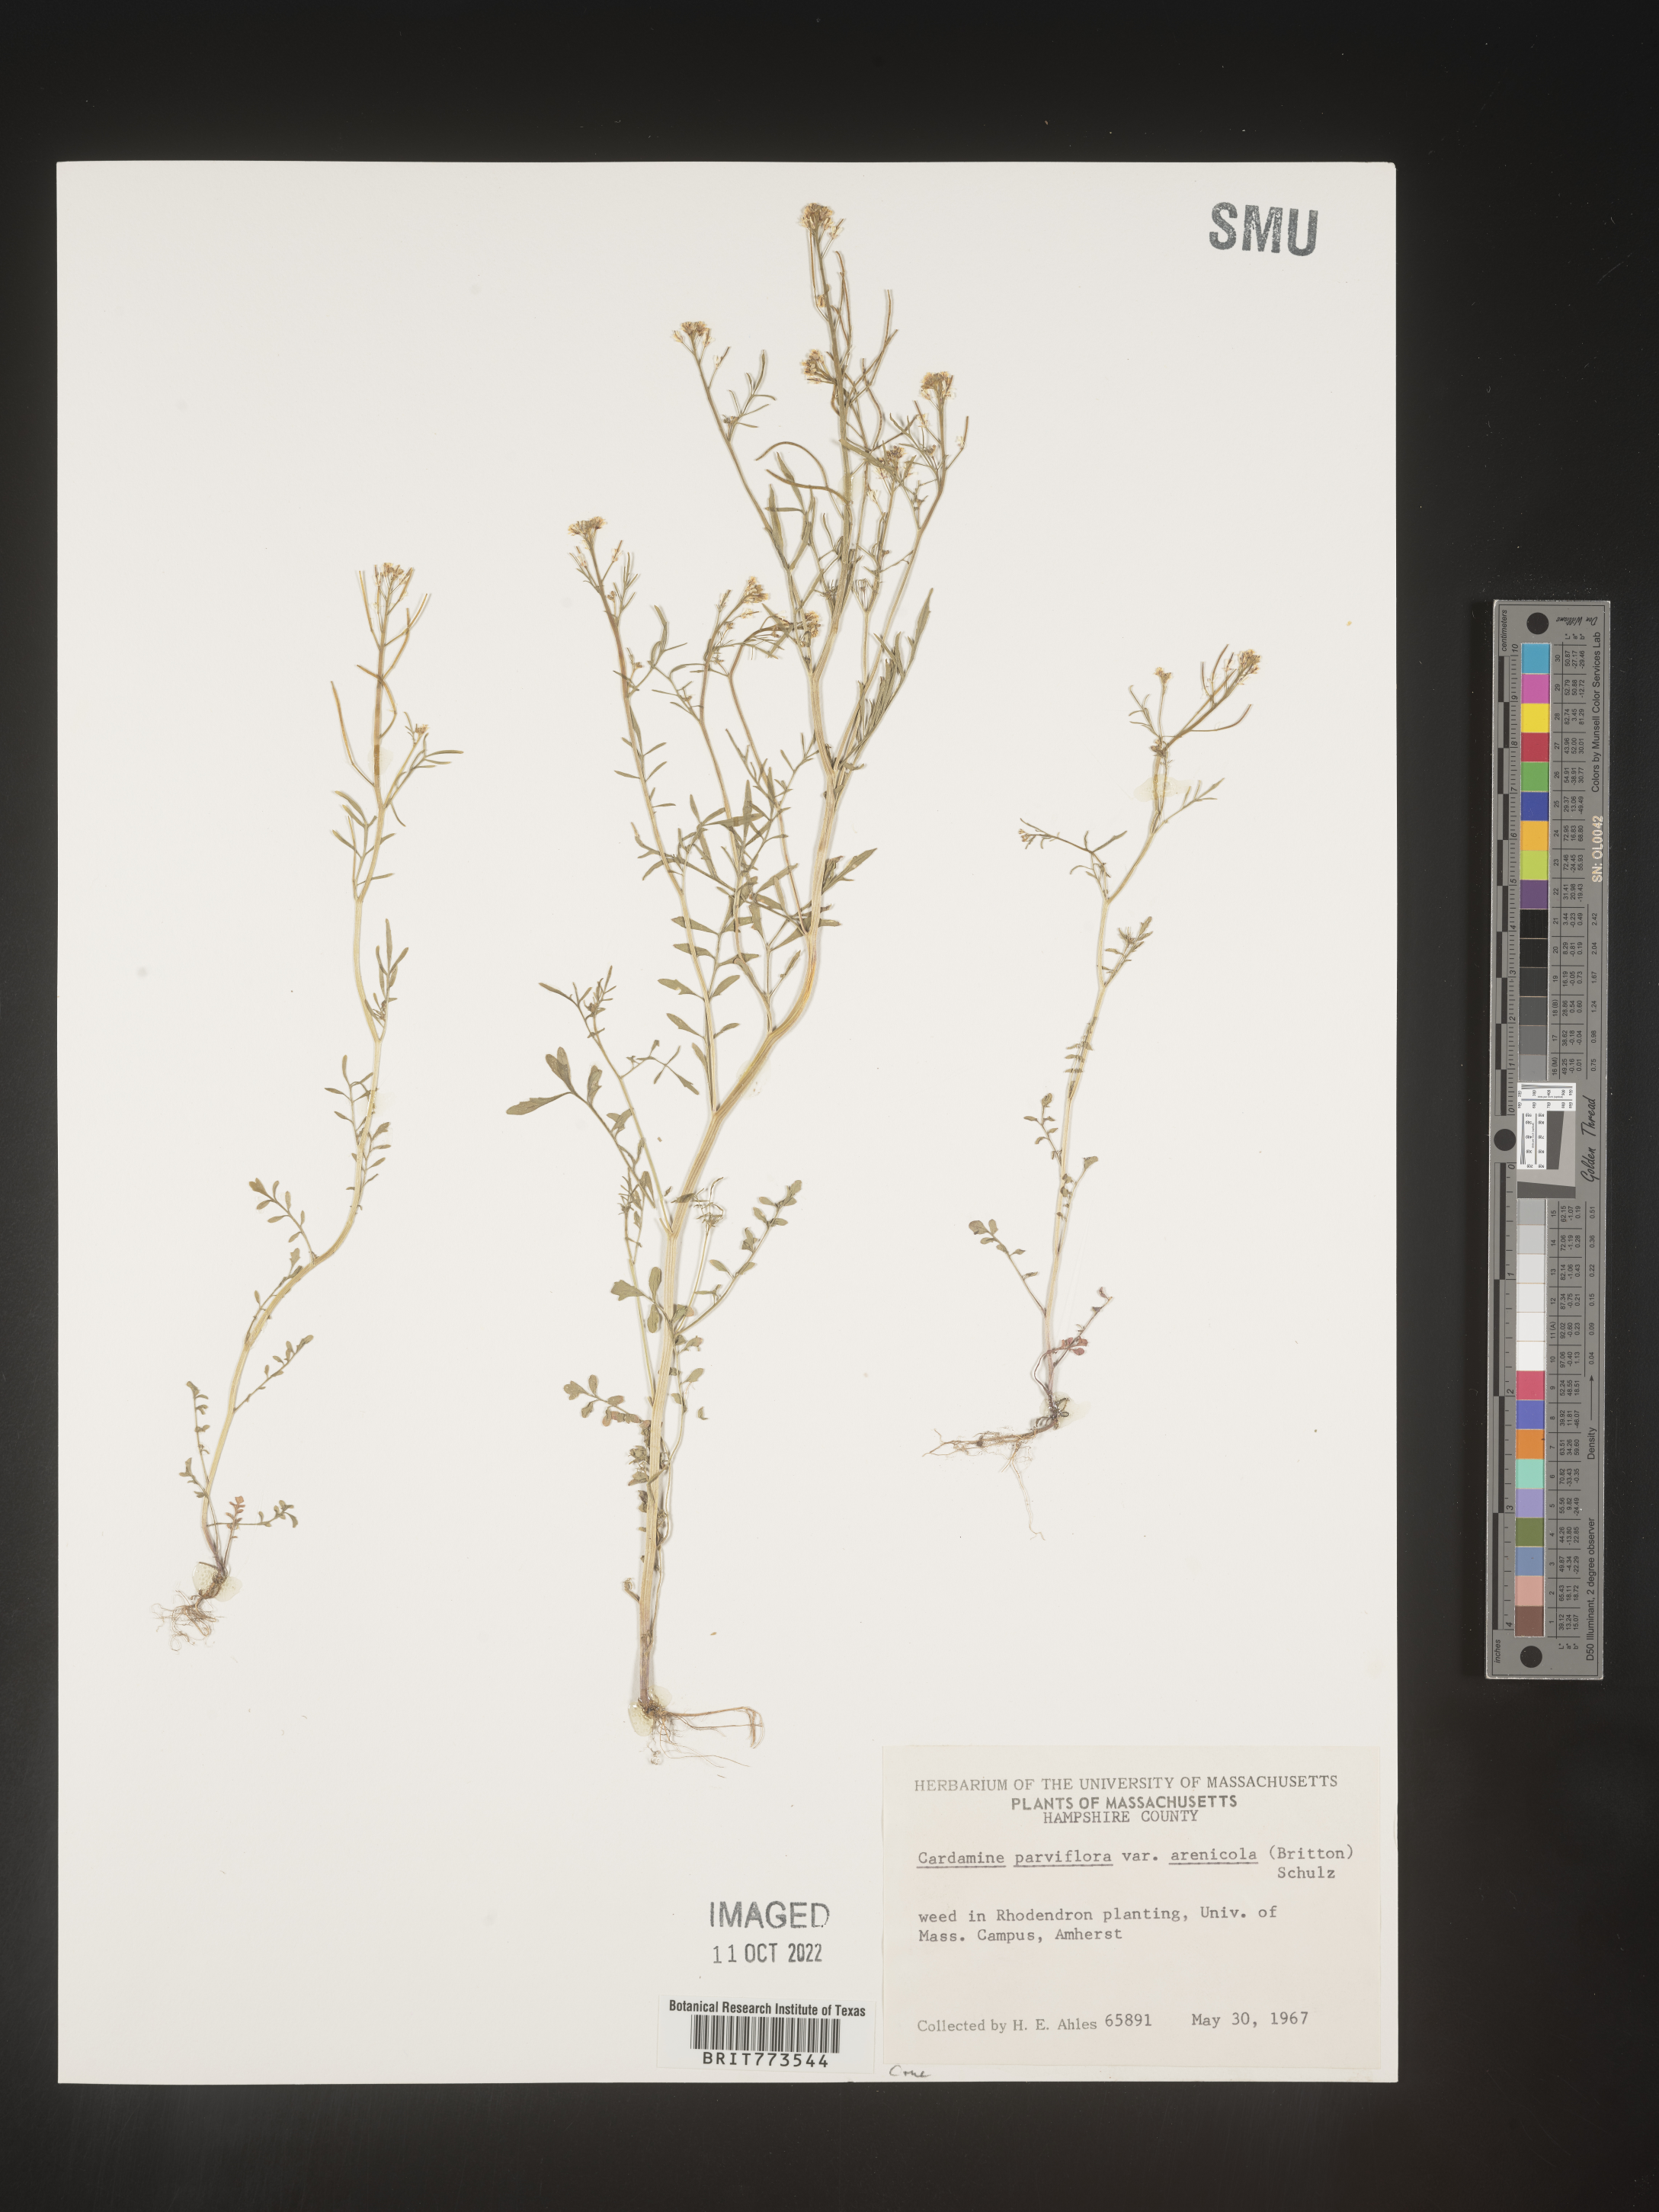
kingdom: Plantae
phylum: Tracheophyta
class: Magnoliopsida
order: Brassicales
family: Brassicaceae
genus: Cardamine
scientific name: Cardamine parviflora
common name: Sand bittercress
